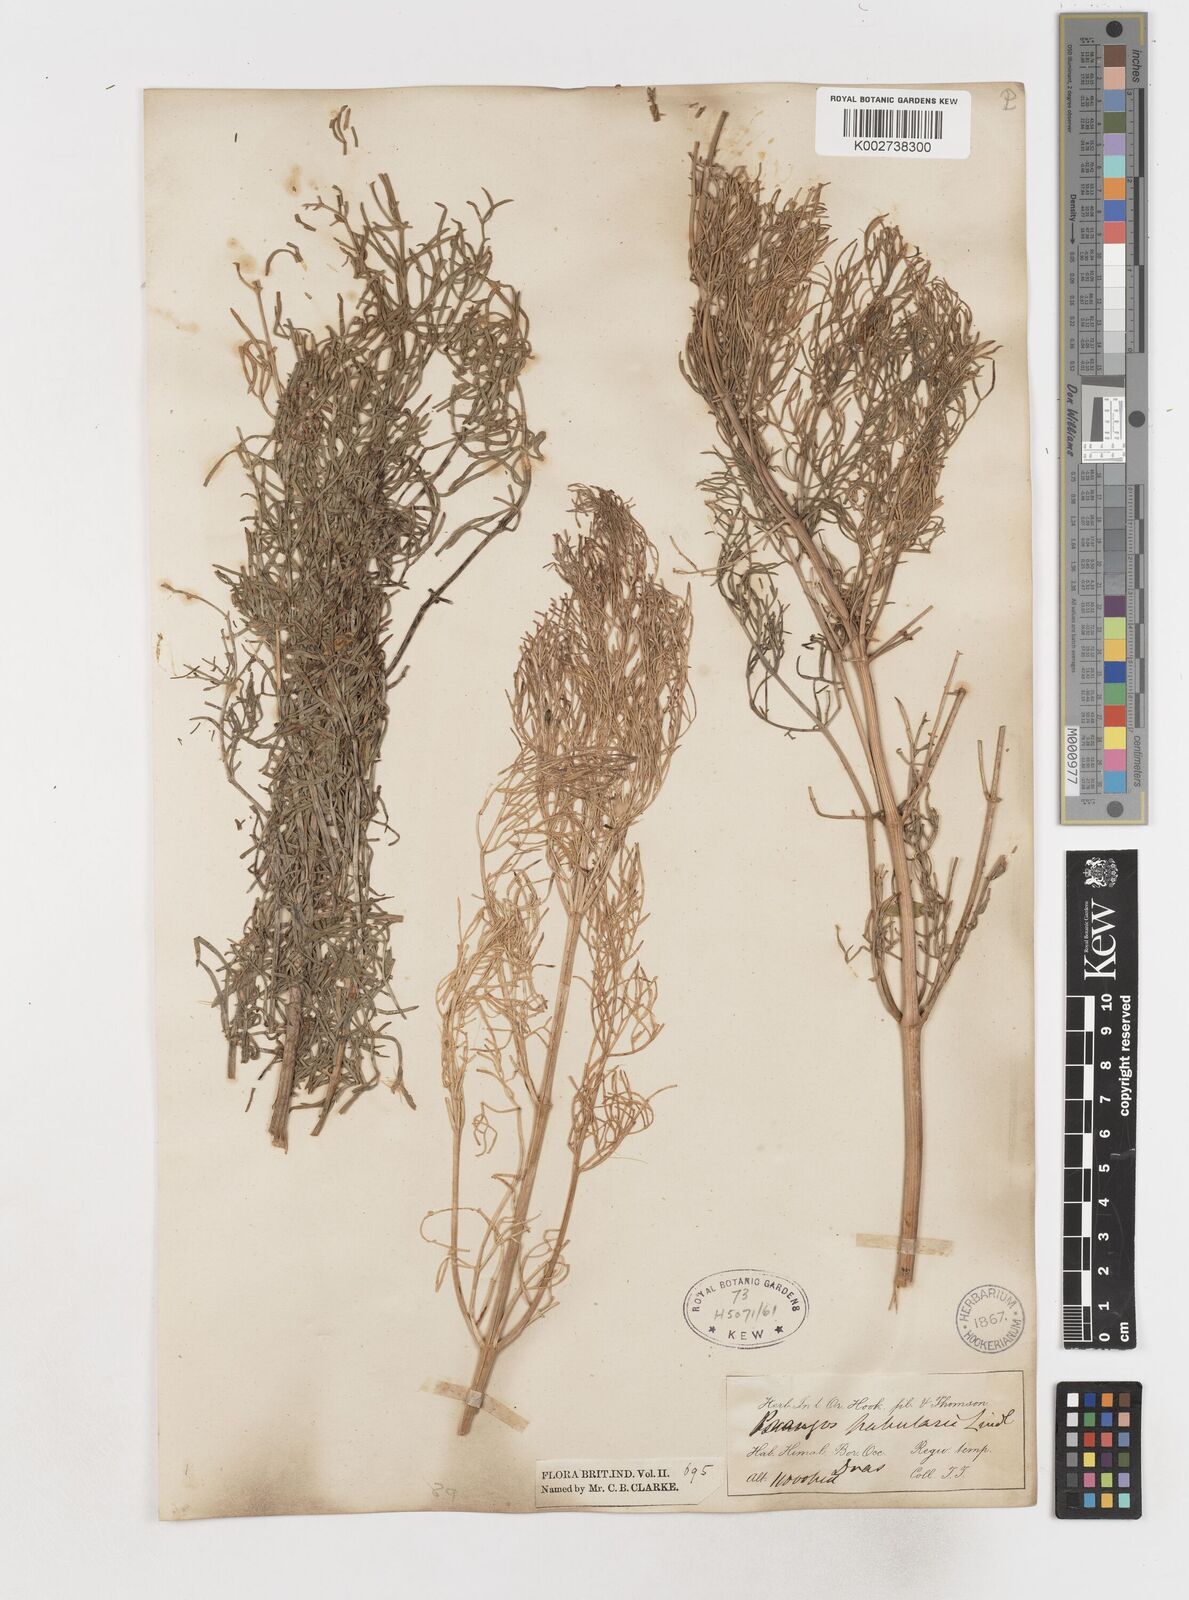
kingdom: Plantae
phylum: Tracheophyta
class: Magnoliopsida
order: Apiales
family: Apiaceae
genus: Prangos
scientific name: Prangos
